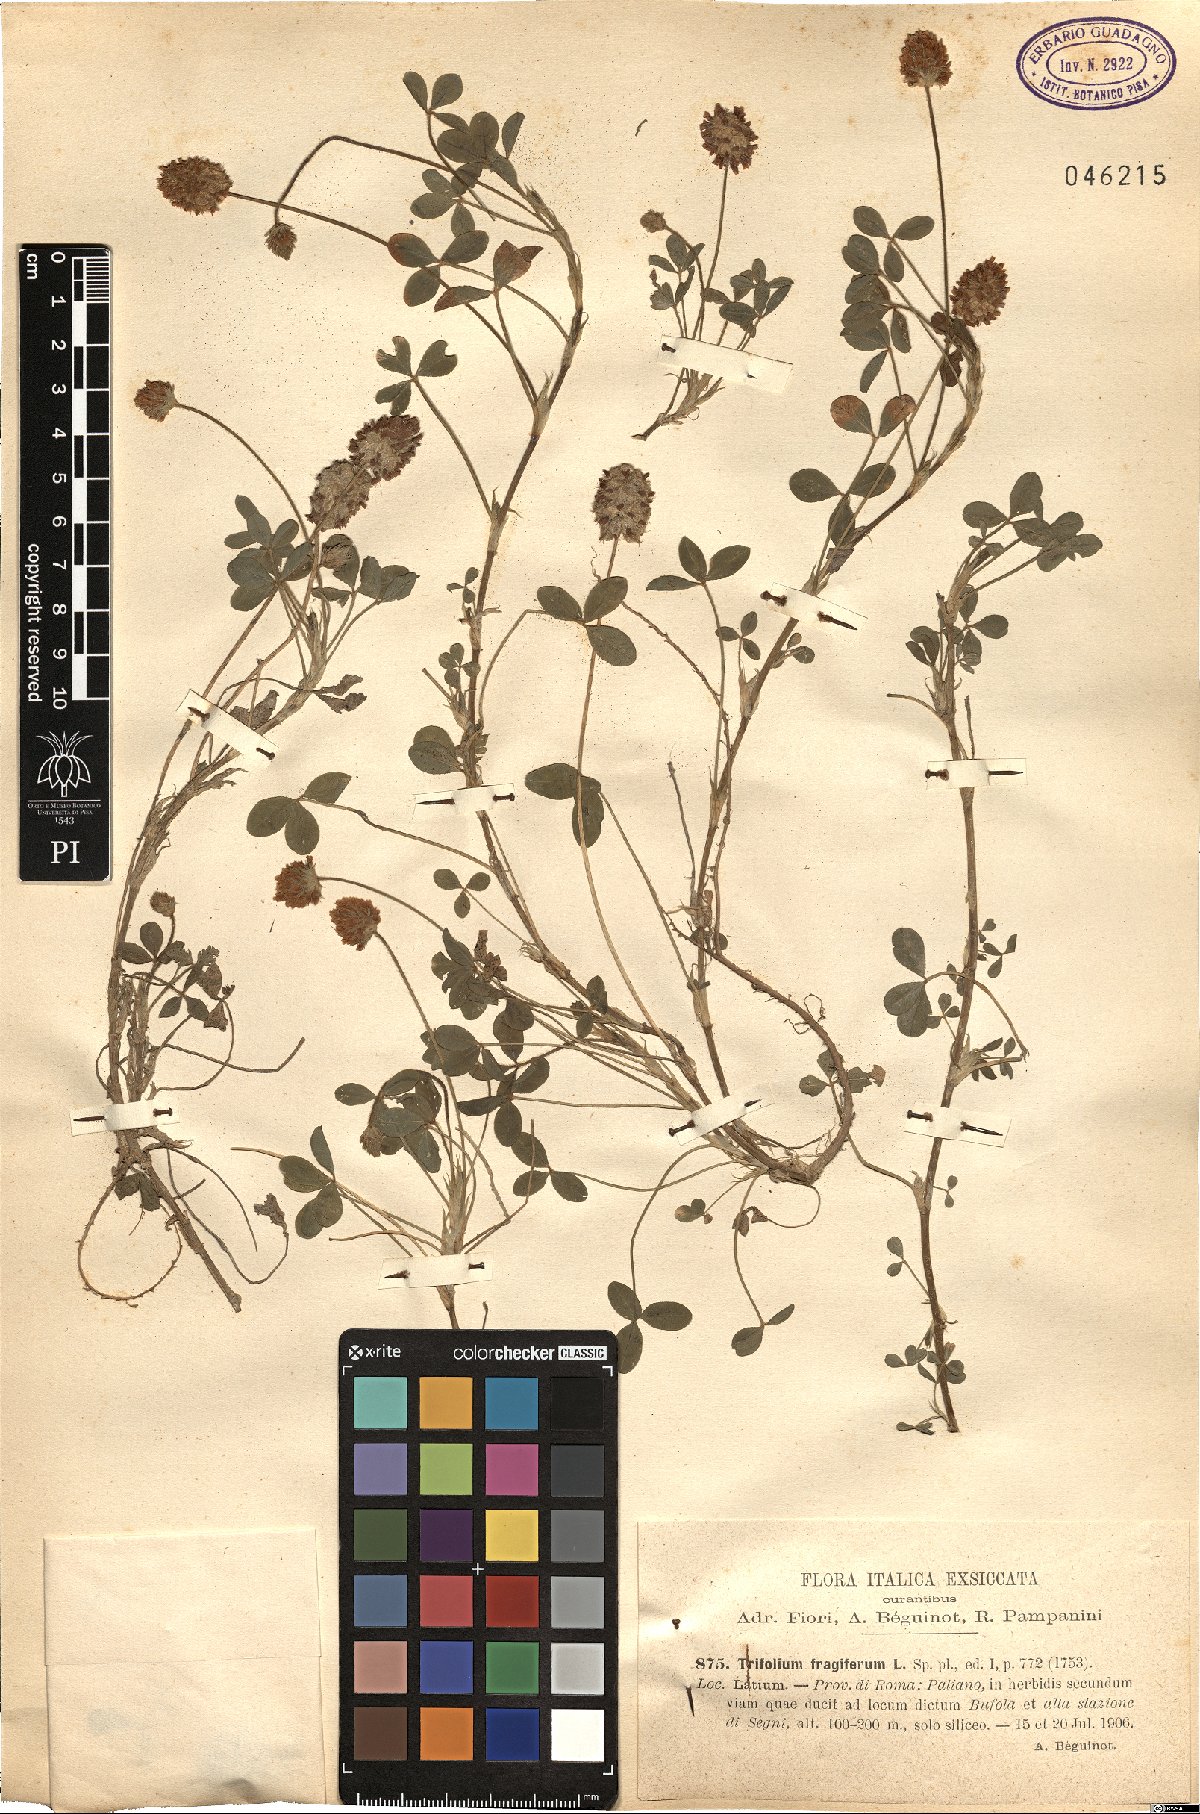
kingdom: Plantae
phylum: Tracheophyta
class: Magnoliopsida
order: Fabales
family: Fabaceae
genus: Trifolium
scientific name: Trifolium fragiferum
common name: Strawberry clover
